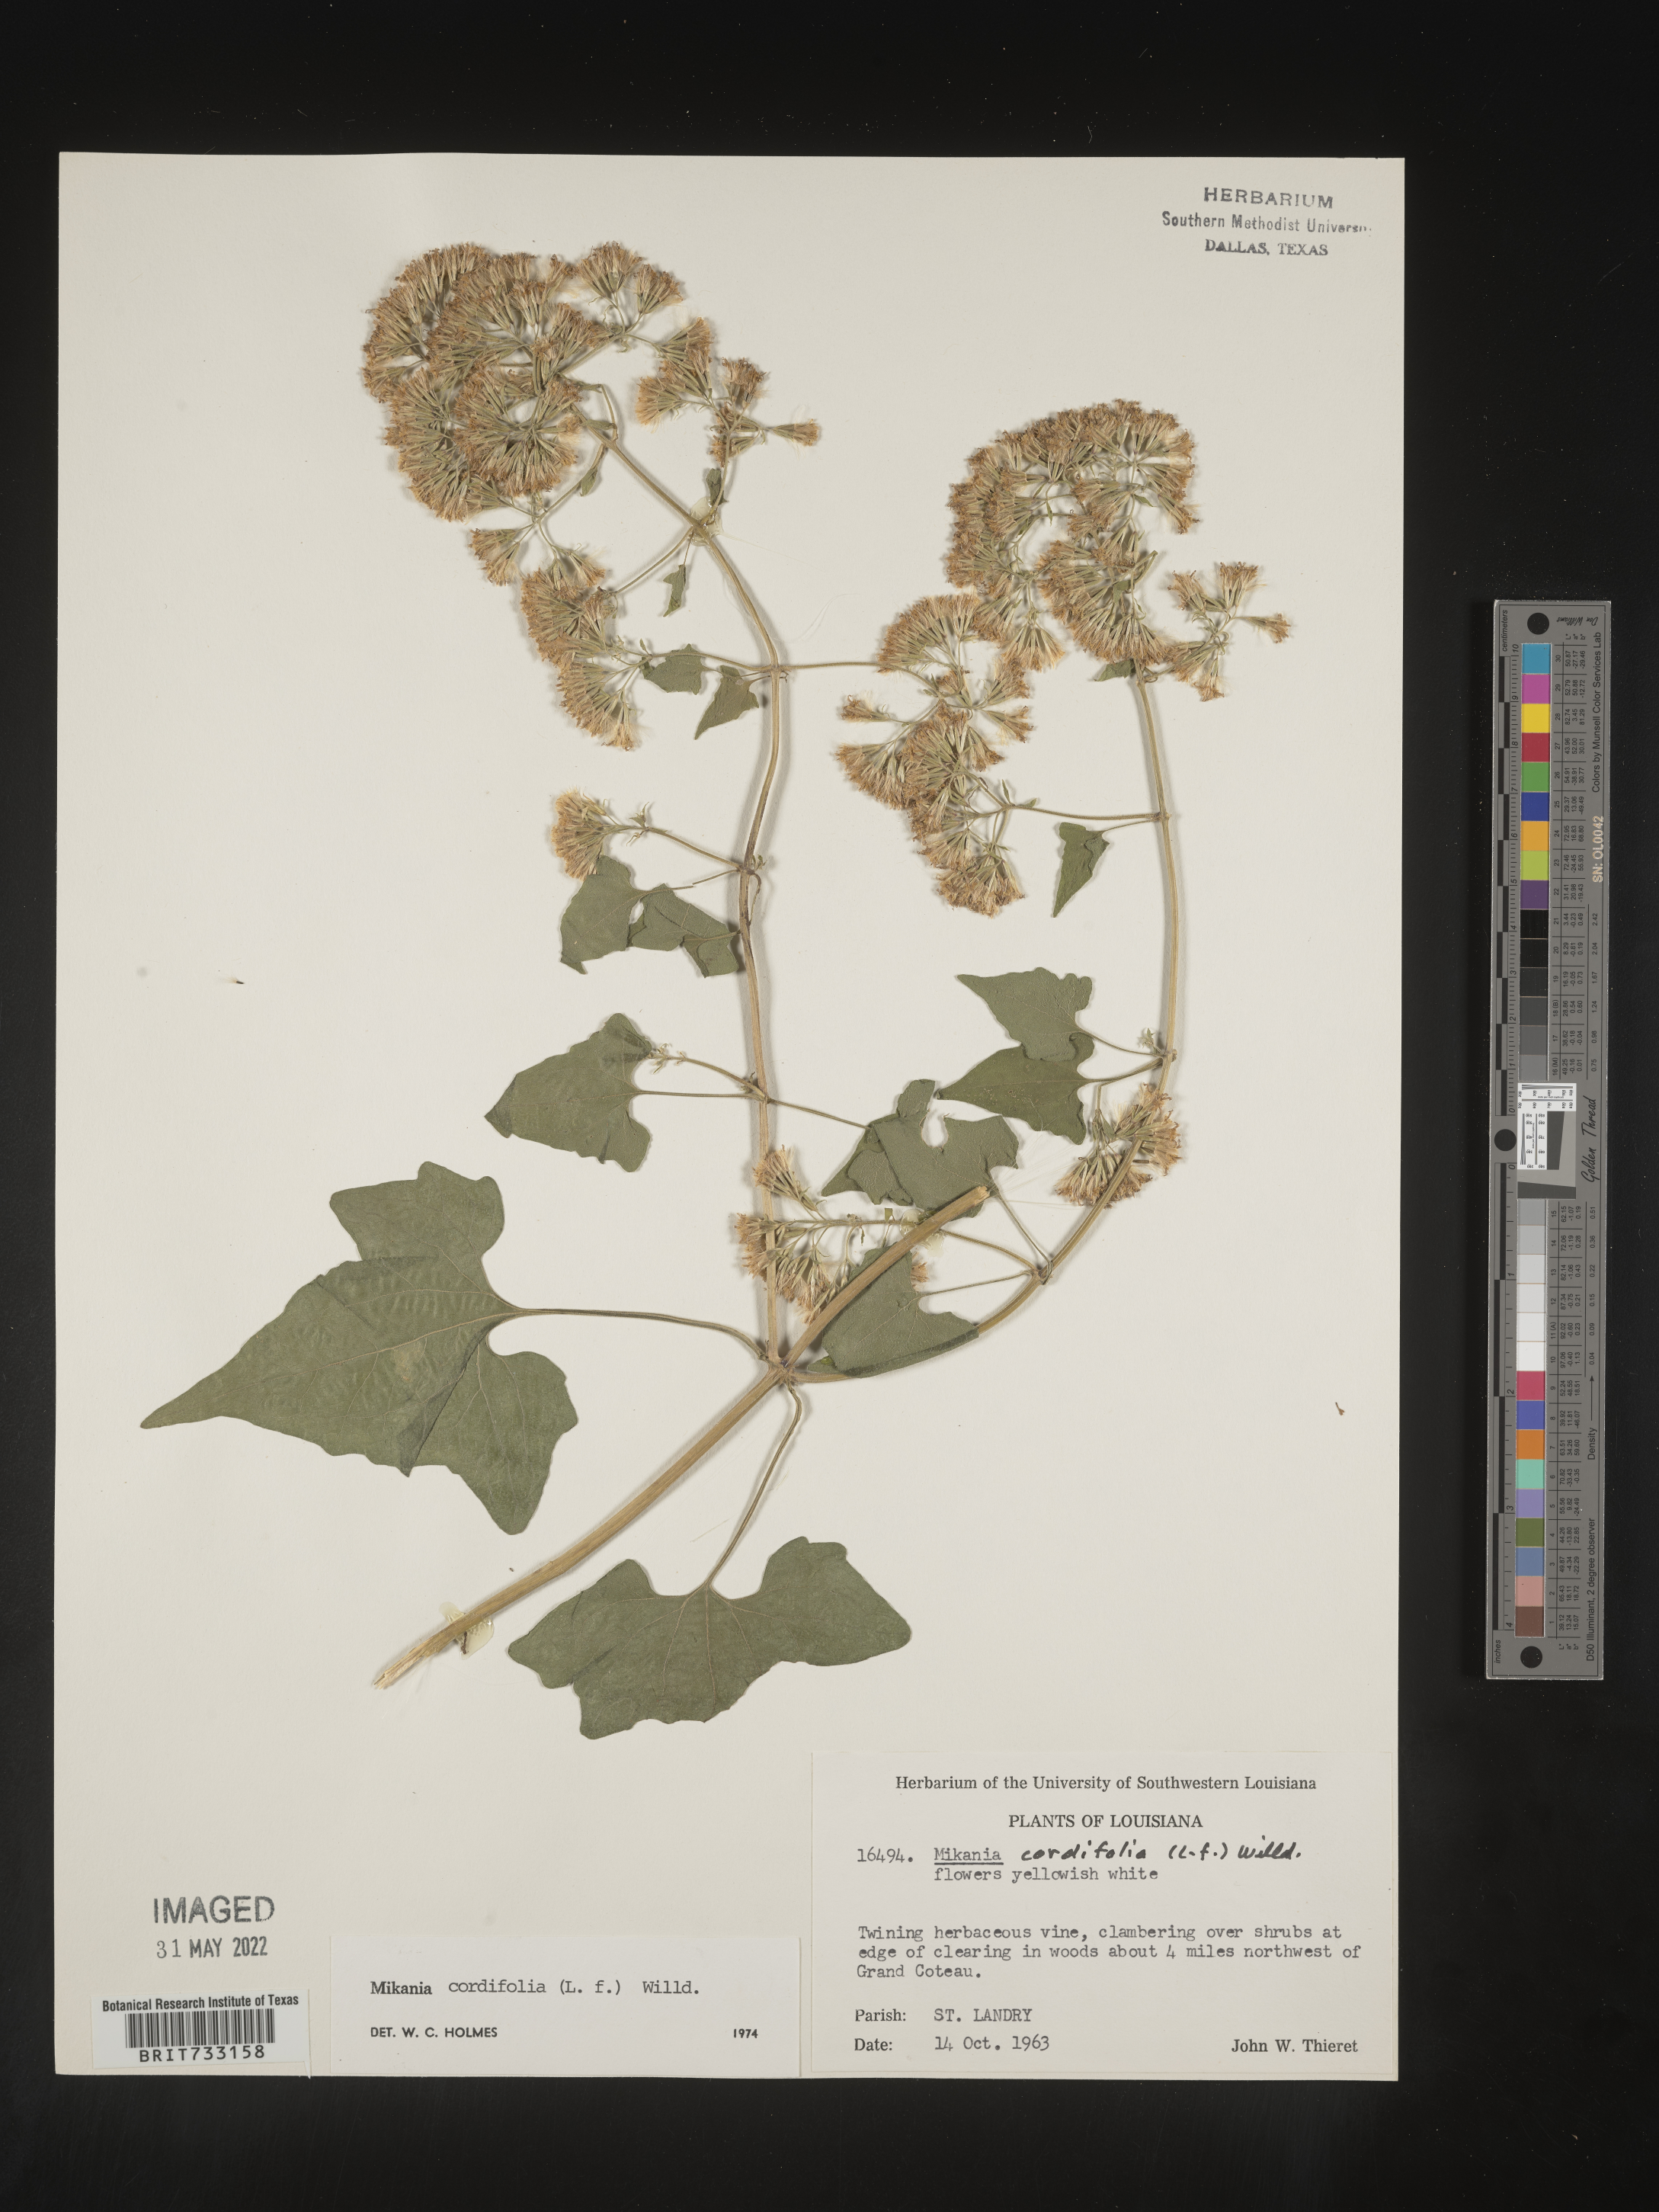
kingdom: Plantae
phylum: Tracheophyta
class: Magnoliopsida
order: Asterales
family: Asteraceae
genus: Mikania
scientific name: Mikania
